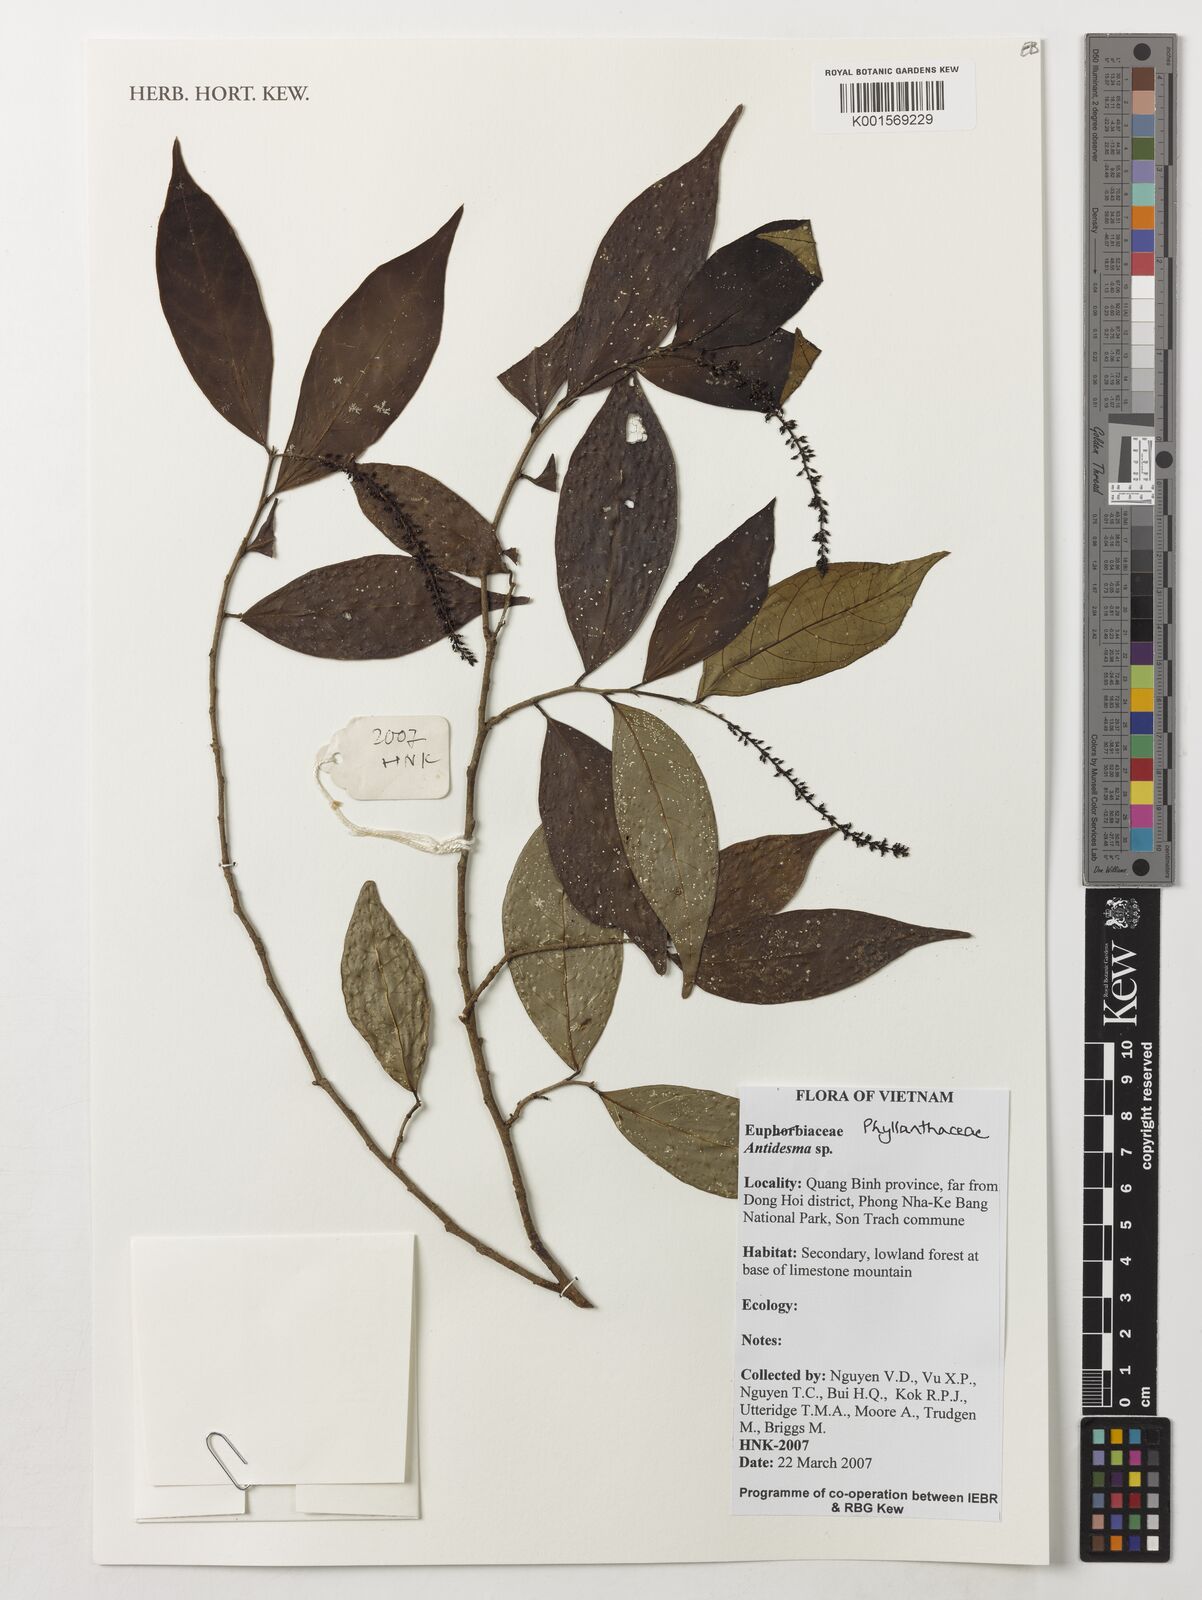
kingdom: Plantae
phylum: Tracheophyta
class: Magnoliopsida
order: Malpighiales
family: Phyllanthaceae
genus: Antidesma
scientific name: Antidesma
